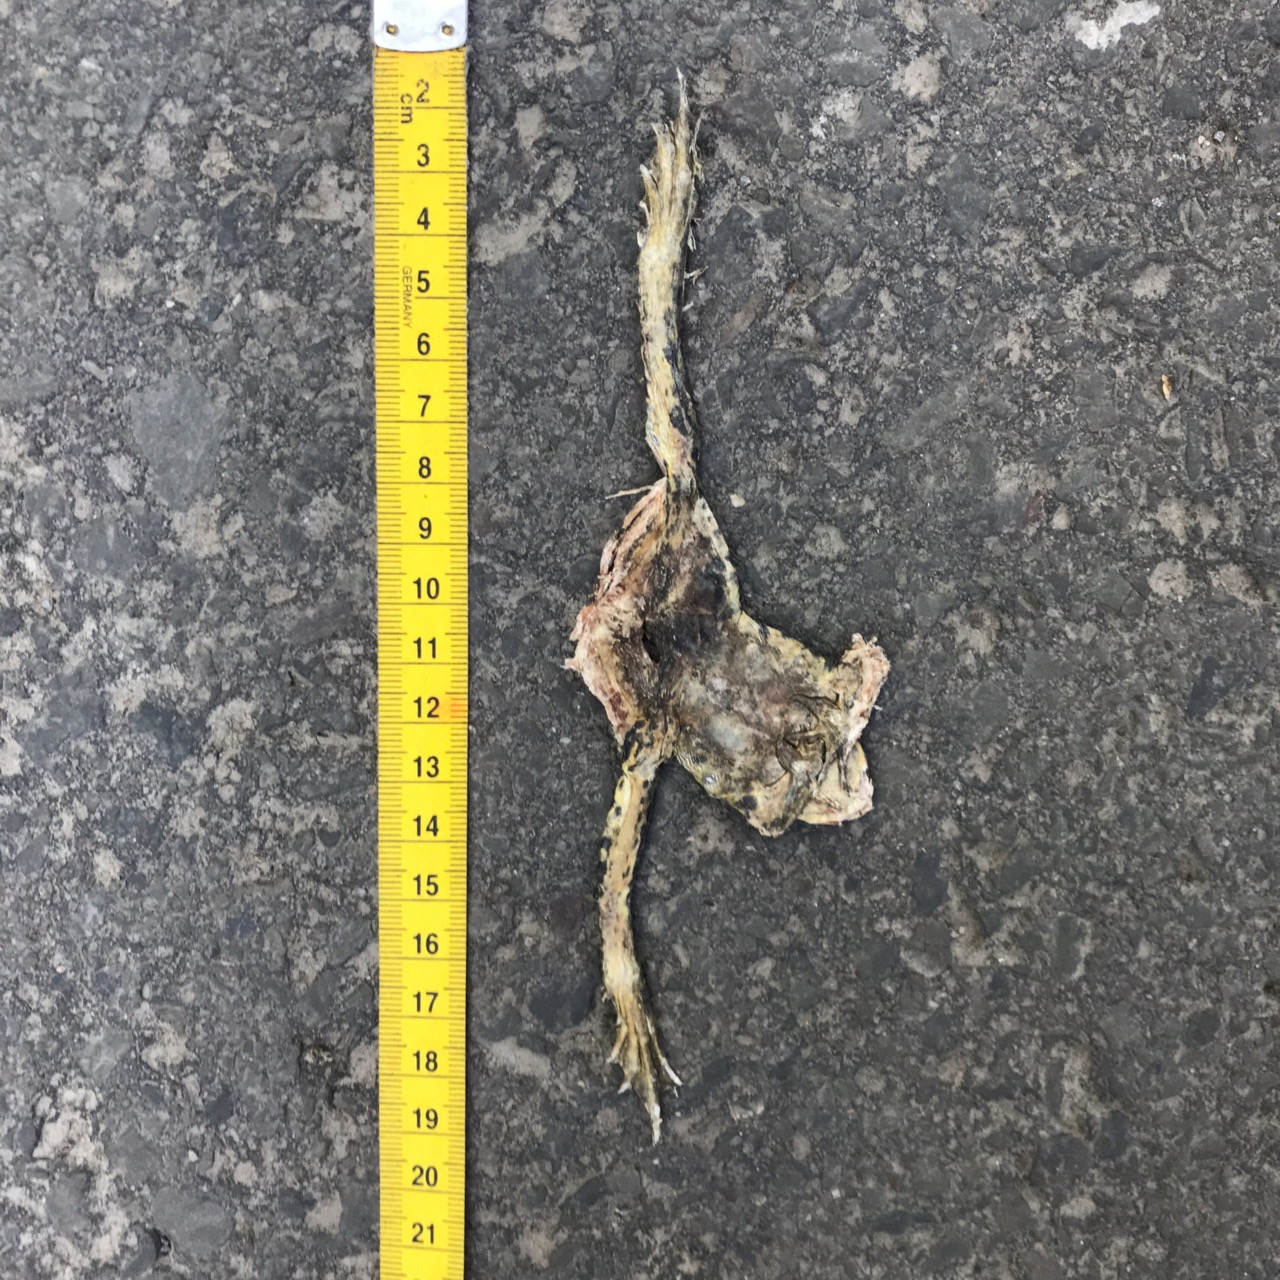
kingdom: Animalia
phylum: Chordata
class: Amphibia
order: Anura
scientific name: Anura
